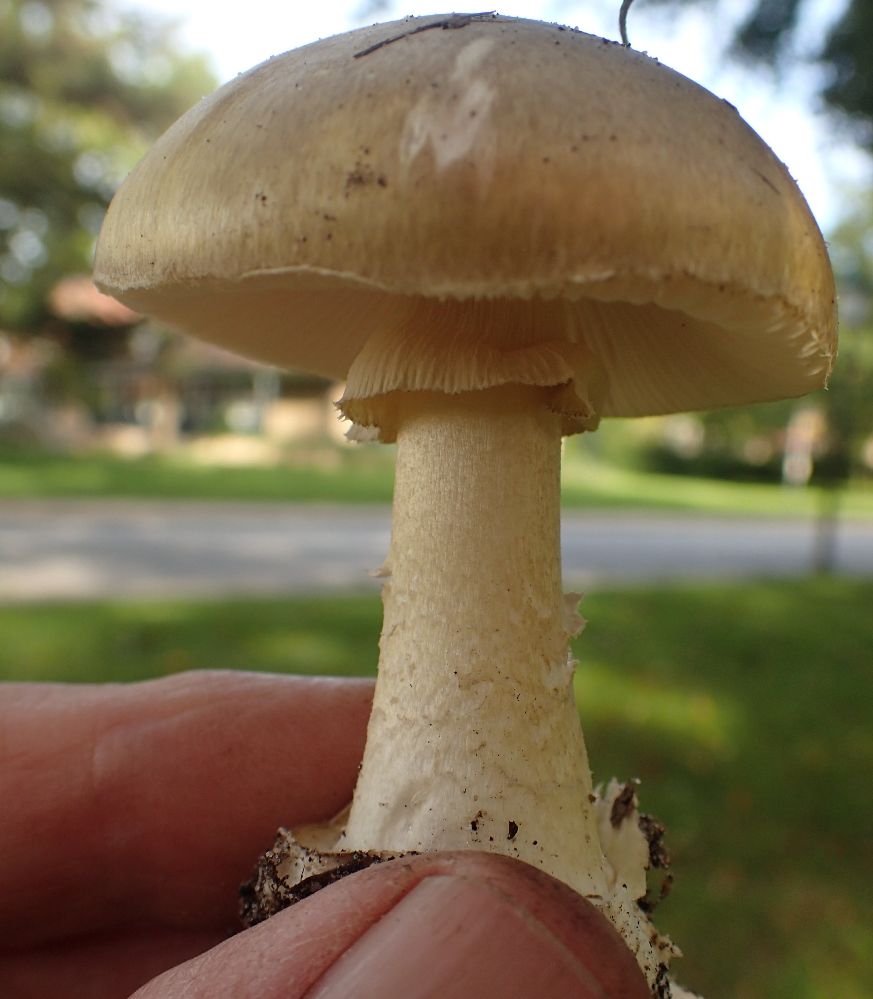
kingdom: Fungi
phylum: Basidiomycota
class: Agaricomycetes
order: Agaricales
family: Amanitaceae
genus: Amanita
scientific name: Amanita phalloides
